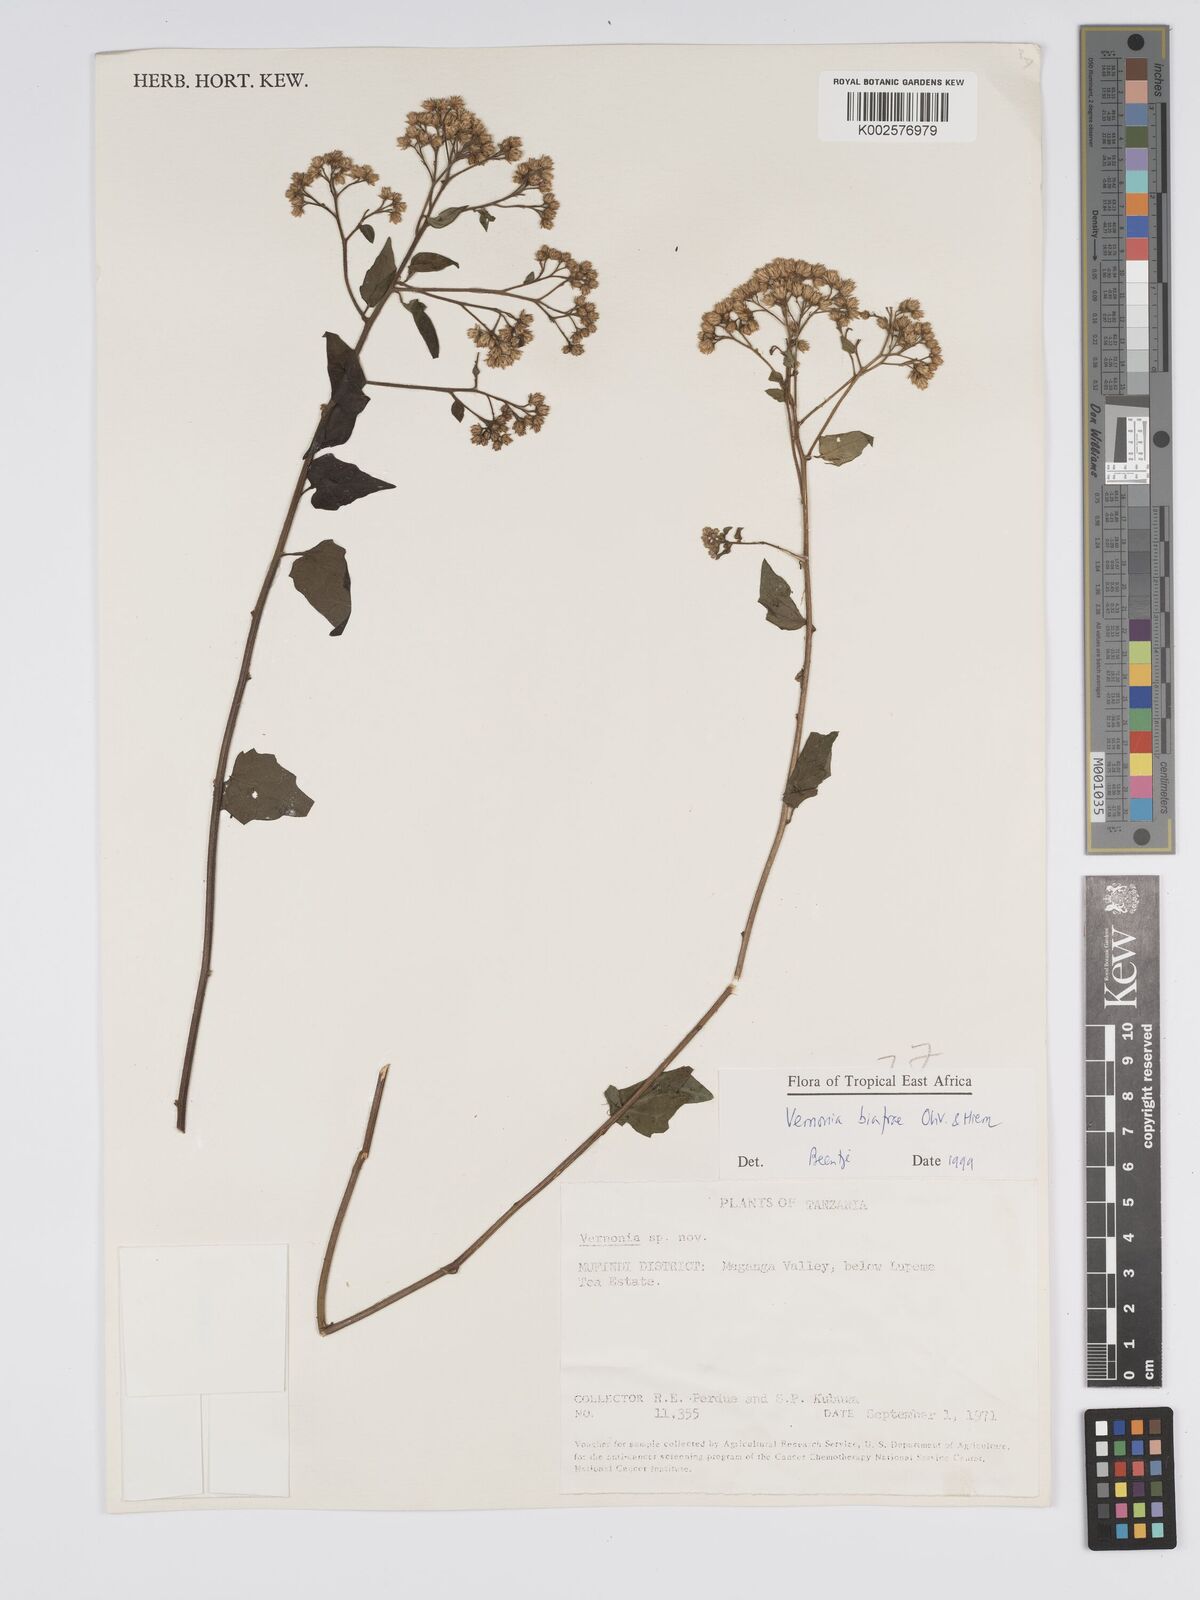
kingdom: Plantae
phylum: Tracheophyta
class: Magnoliopsida
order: Asterales
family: Asteraceae
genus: Distephanus
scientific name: Distephanus biafrae
